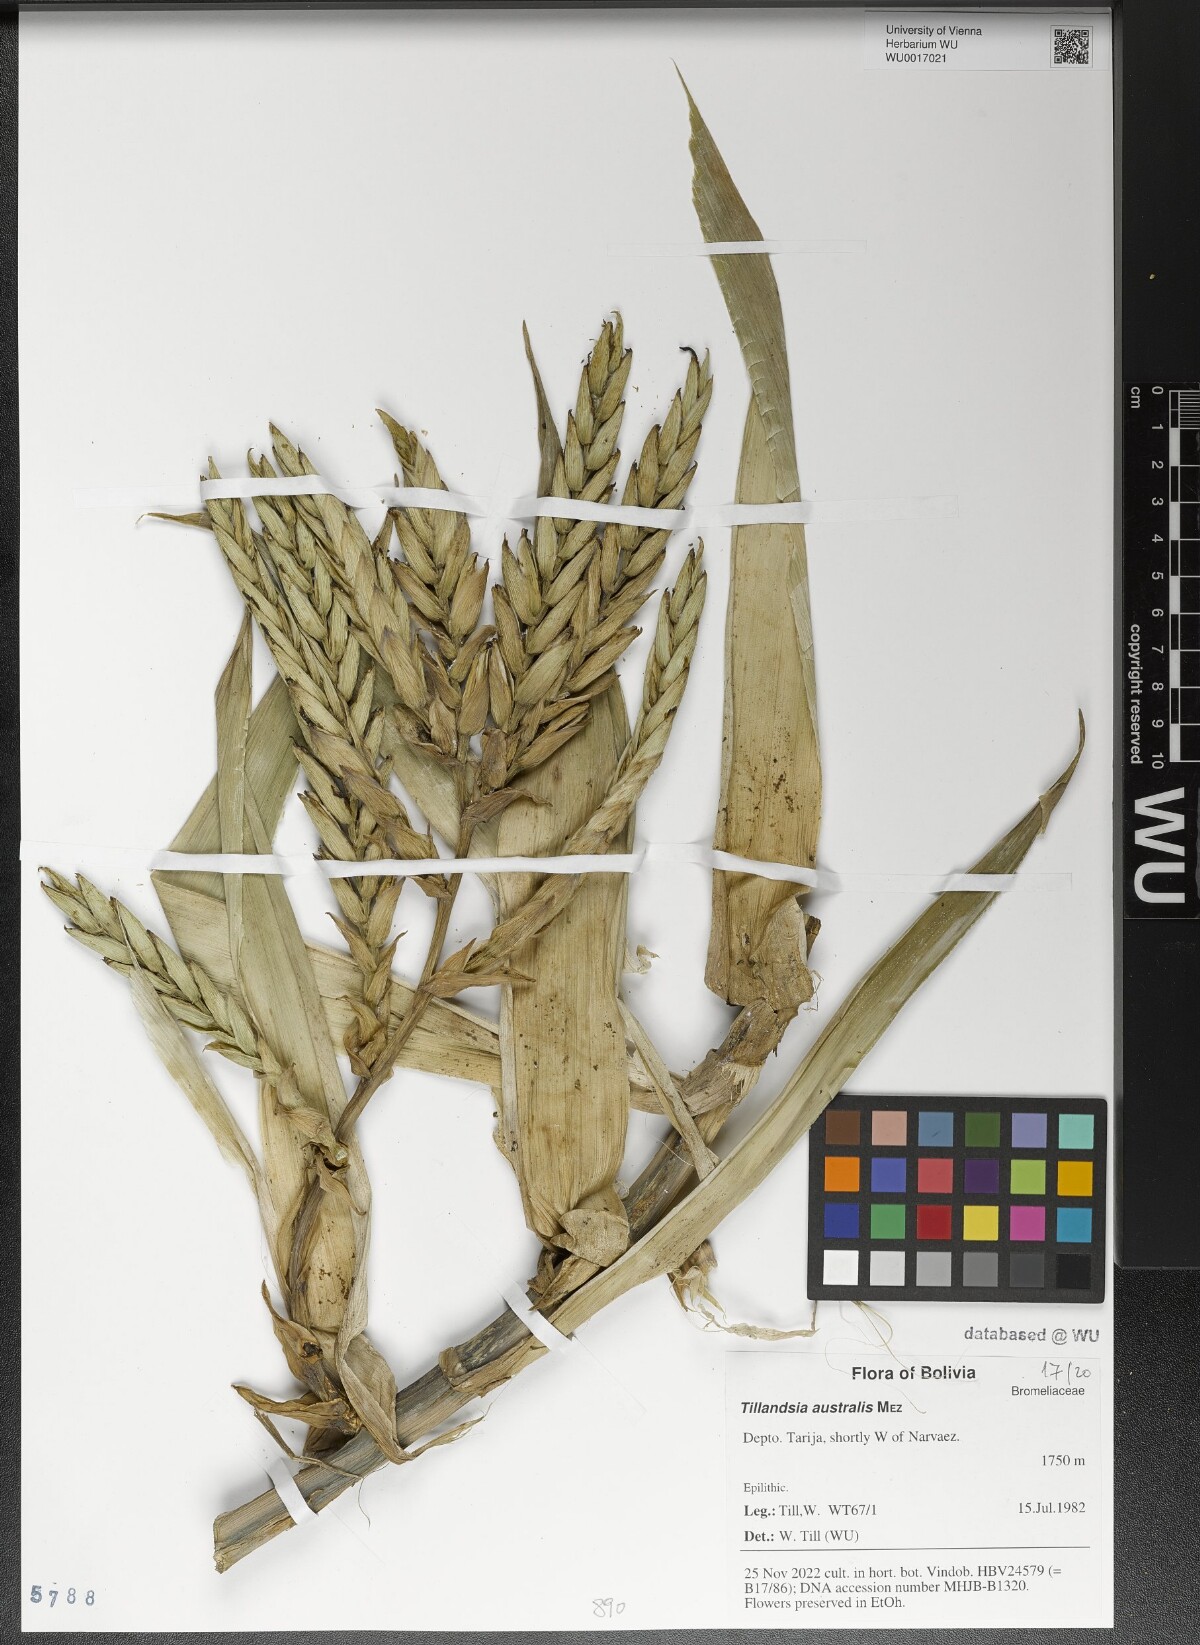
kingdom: Plantae
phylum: Tracheophyta
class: Liliopsida
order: Poales
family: Bromeliaceae
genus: Tillandsia
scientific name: Tillandsia australis
